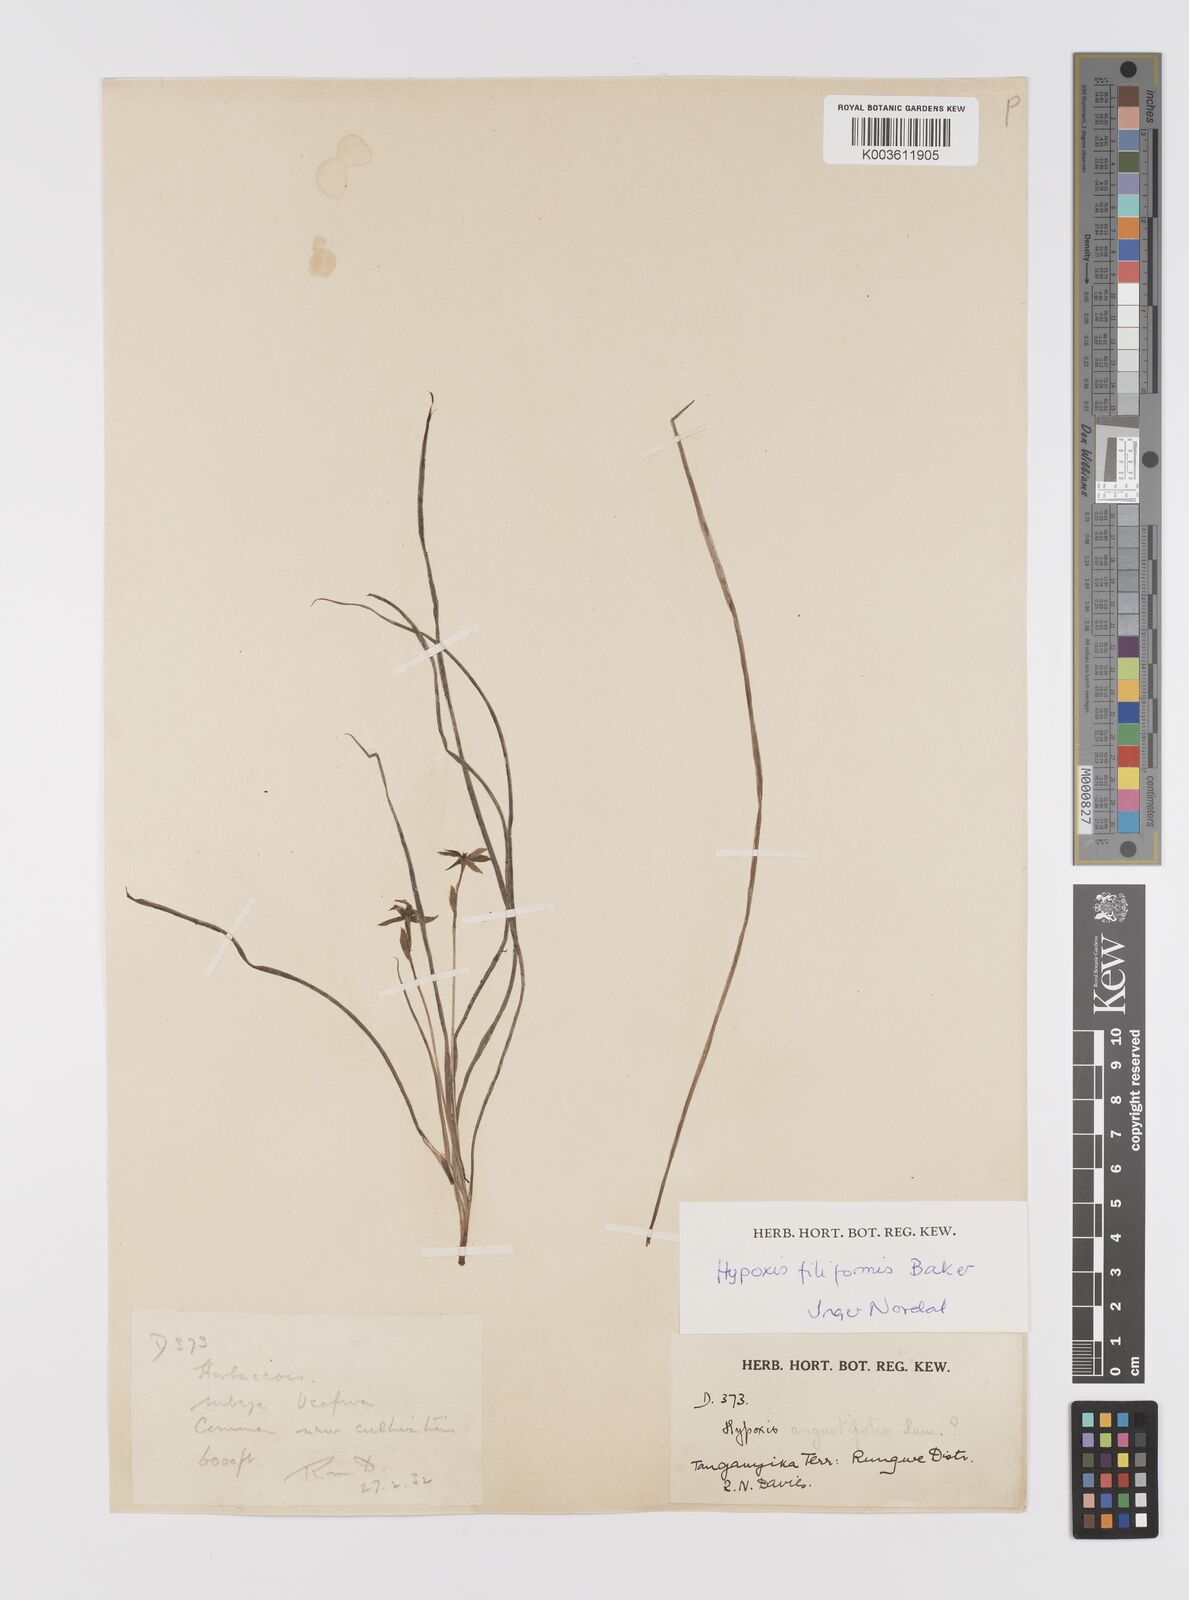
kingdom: Plantae
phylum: Tracheophyta
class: Liliopsida
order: Asparagales
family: Hypoxidaceae
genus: Hypoxis
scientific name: Hypoxis filiformis
